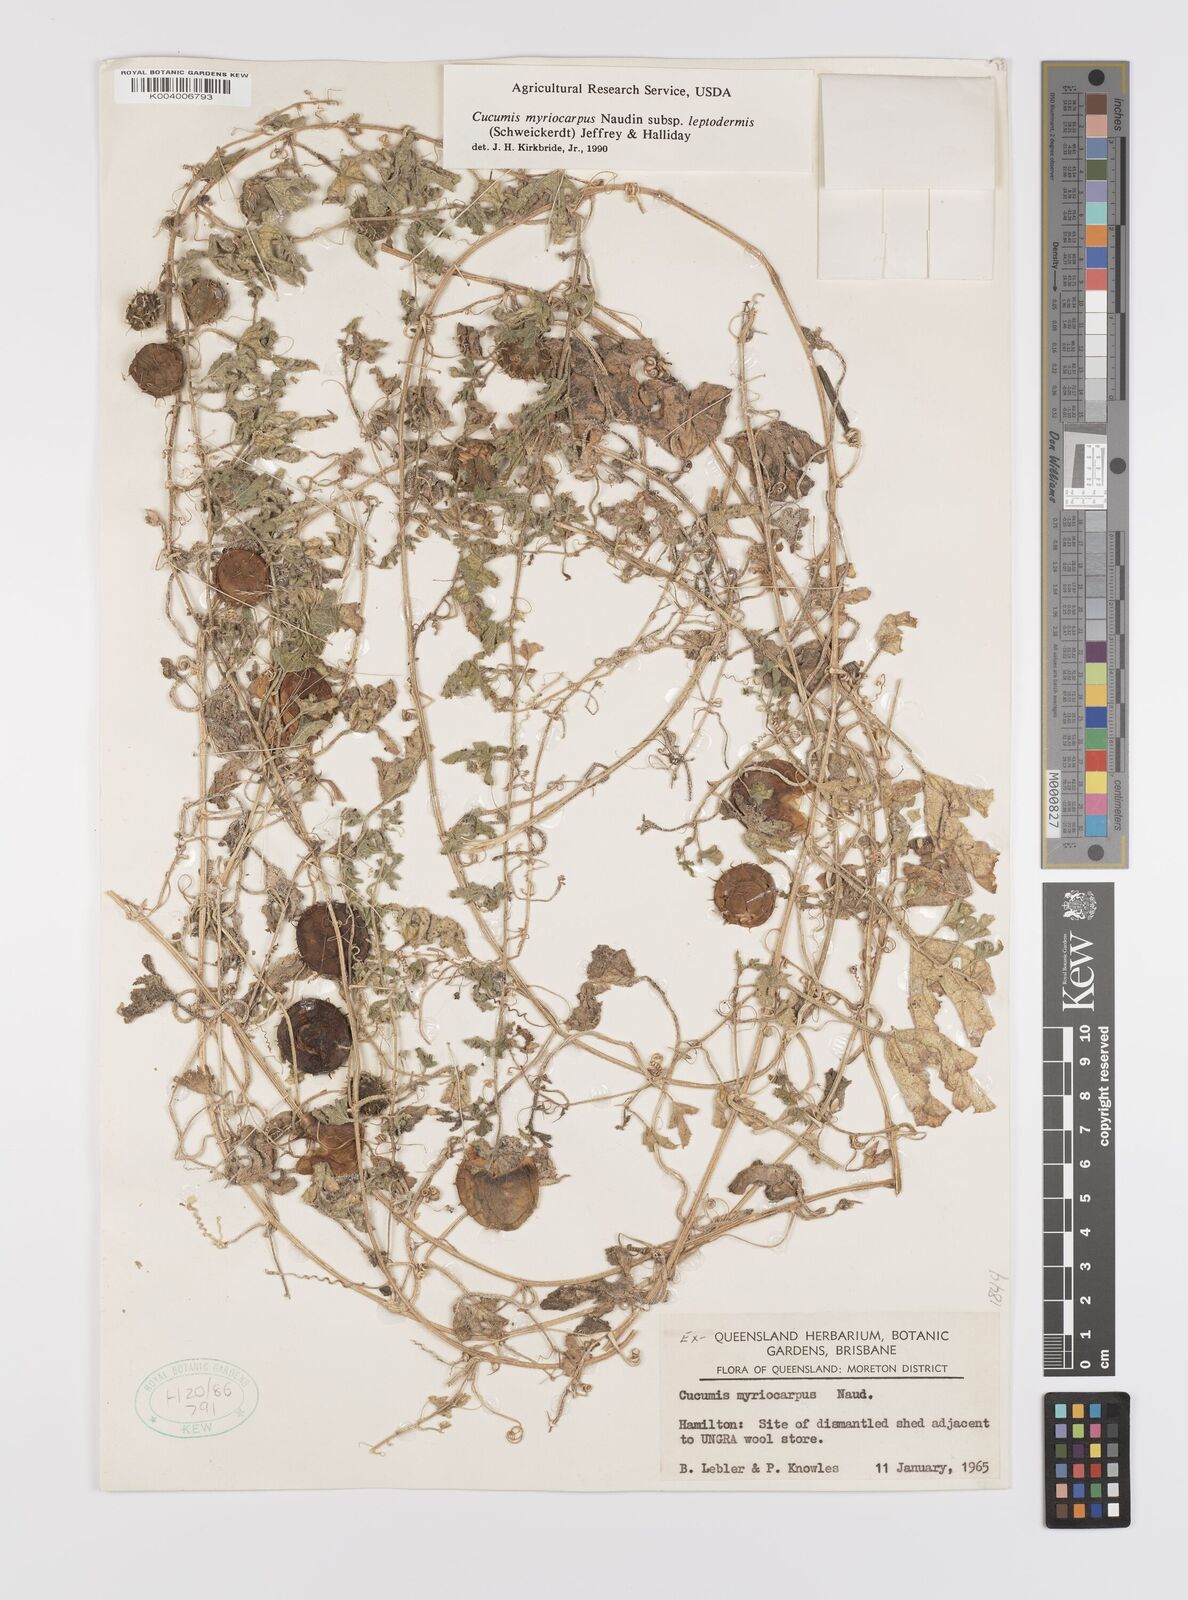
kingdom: Plantae
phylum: Tracheophyta
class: Magnoliopsida
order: Cucurbitales
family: Cucurbitaceae
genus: Cucumis
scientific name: Cucumis myriocarpus
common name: Gooseberry cucumber
